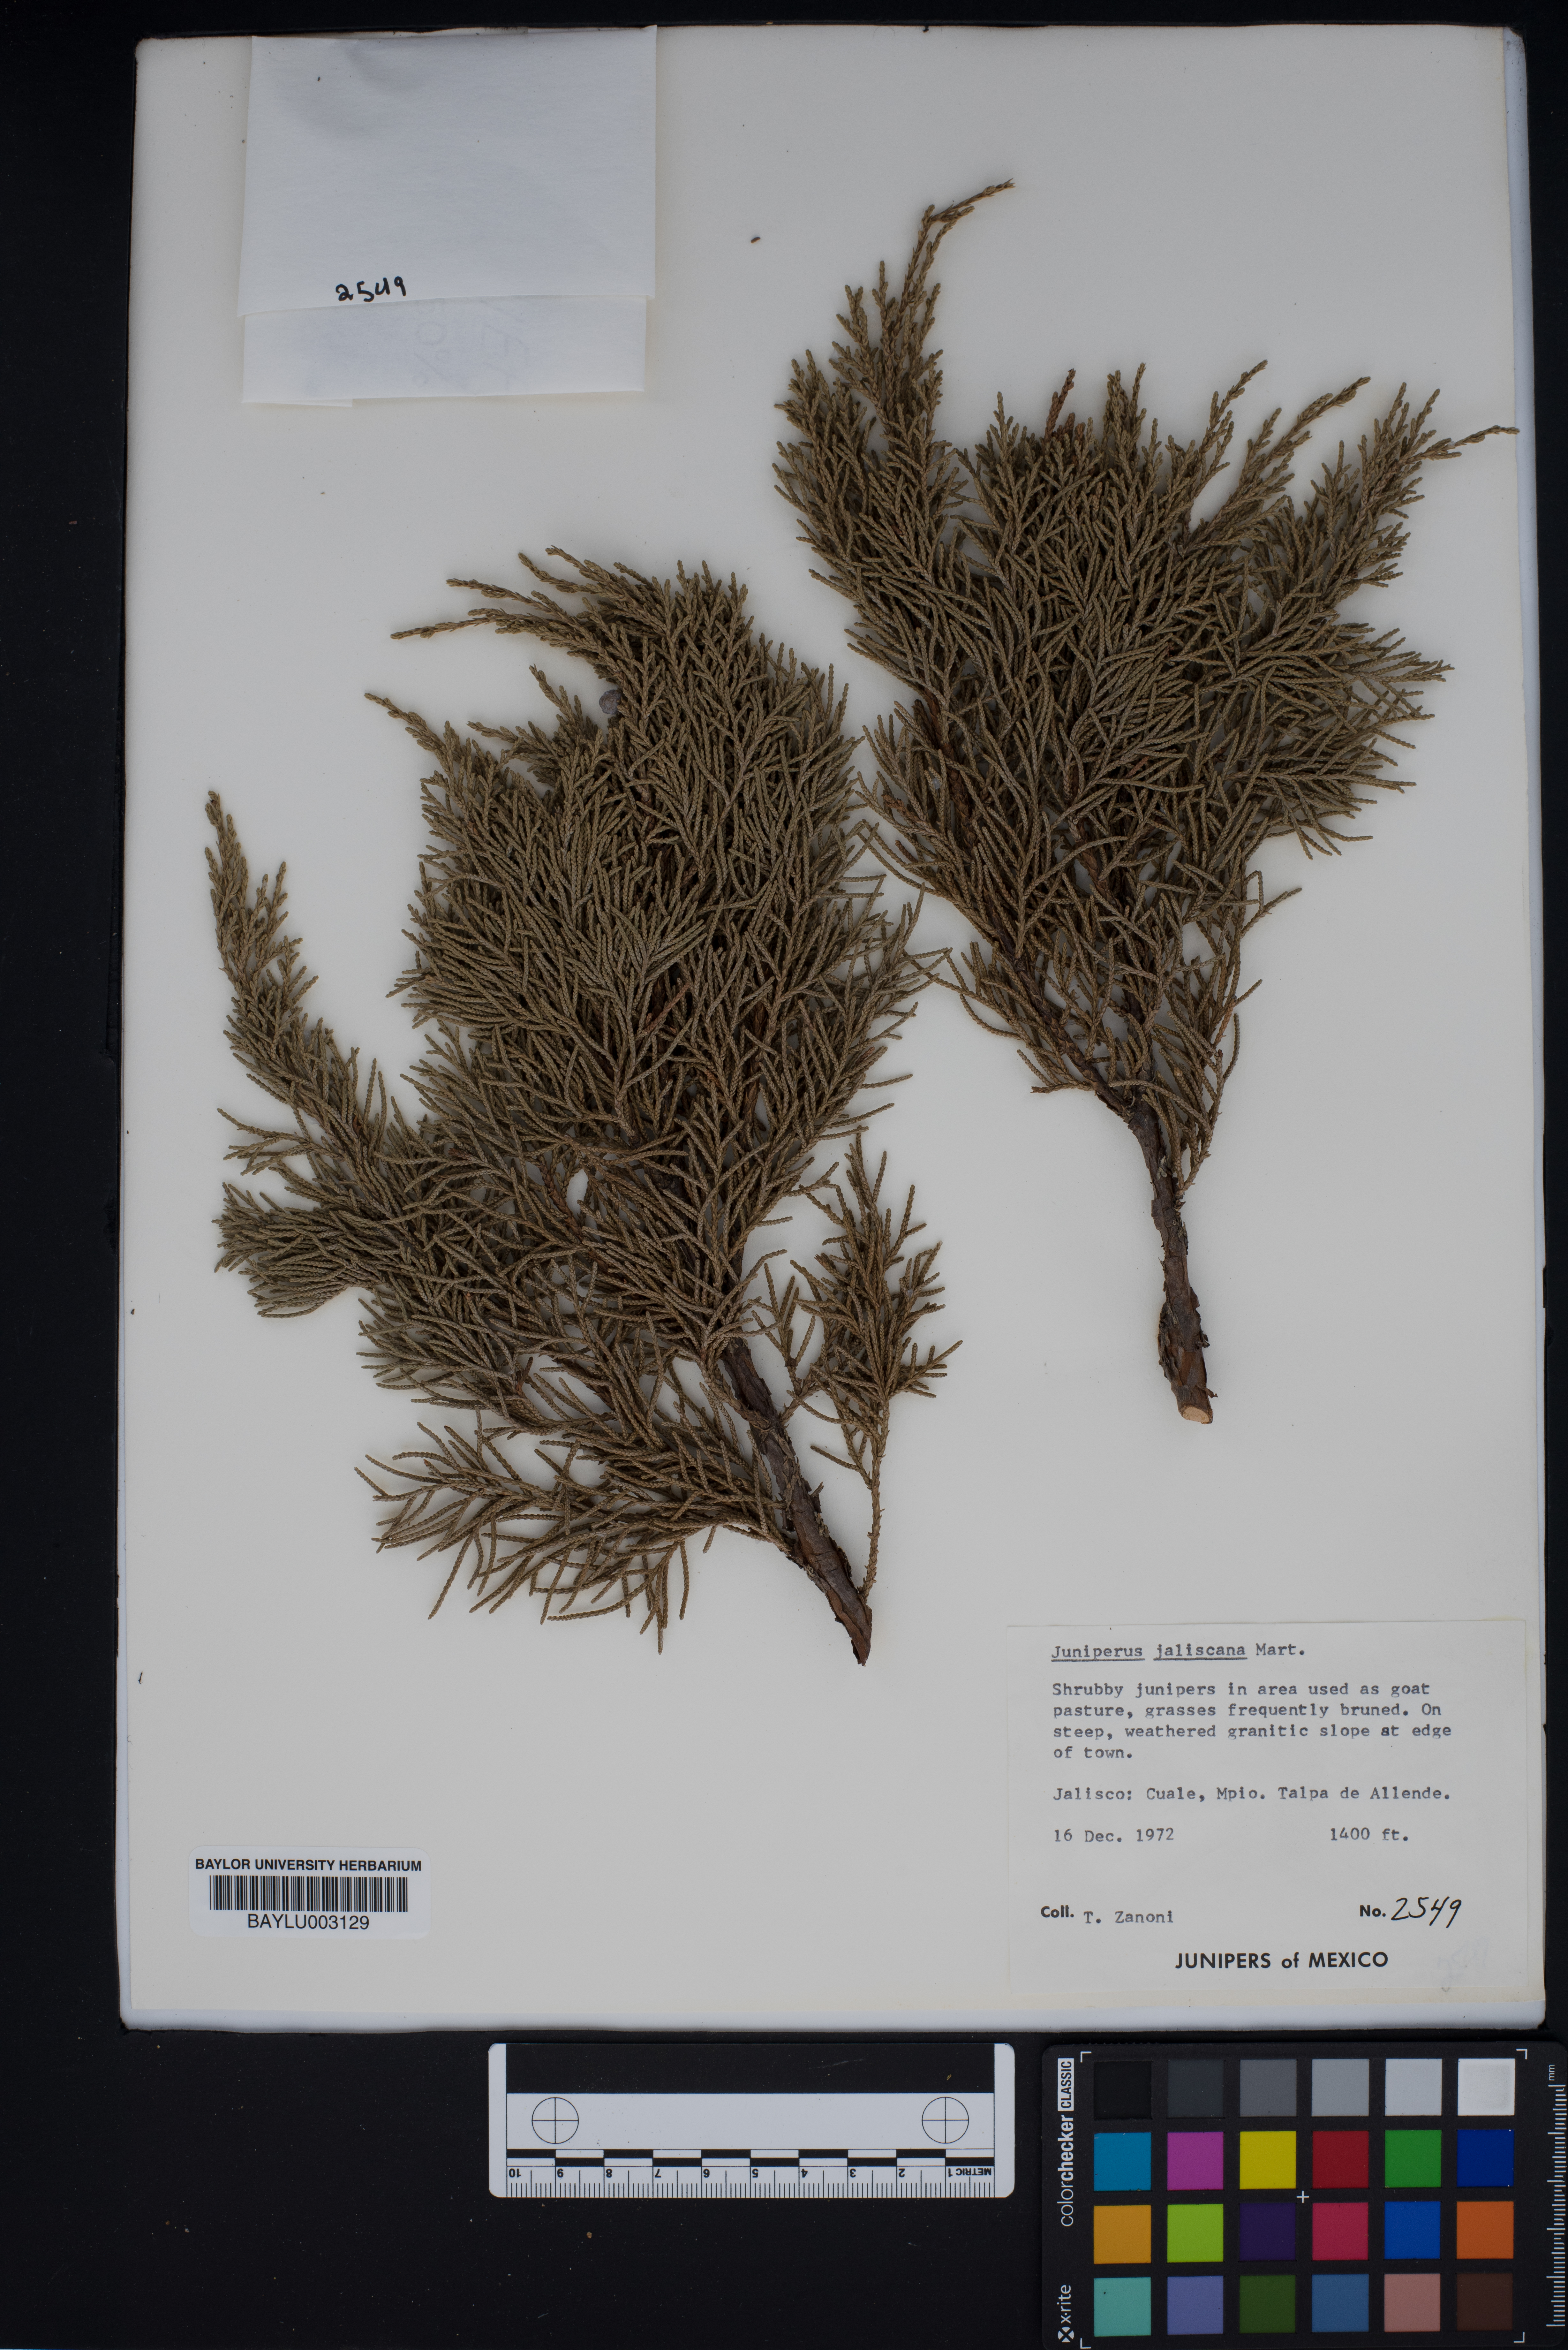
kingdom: Plantae
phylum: Tracheophyta
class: Pinopsida
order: Pinales
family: Cupressaceae
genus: Juniperus
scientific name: Juniperus jaliscana
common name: Jalisco juniper
